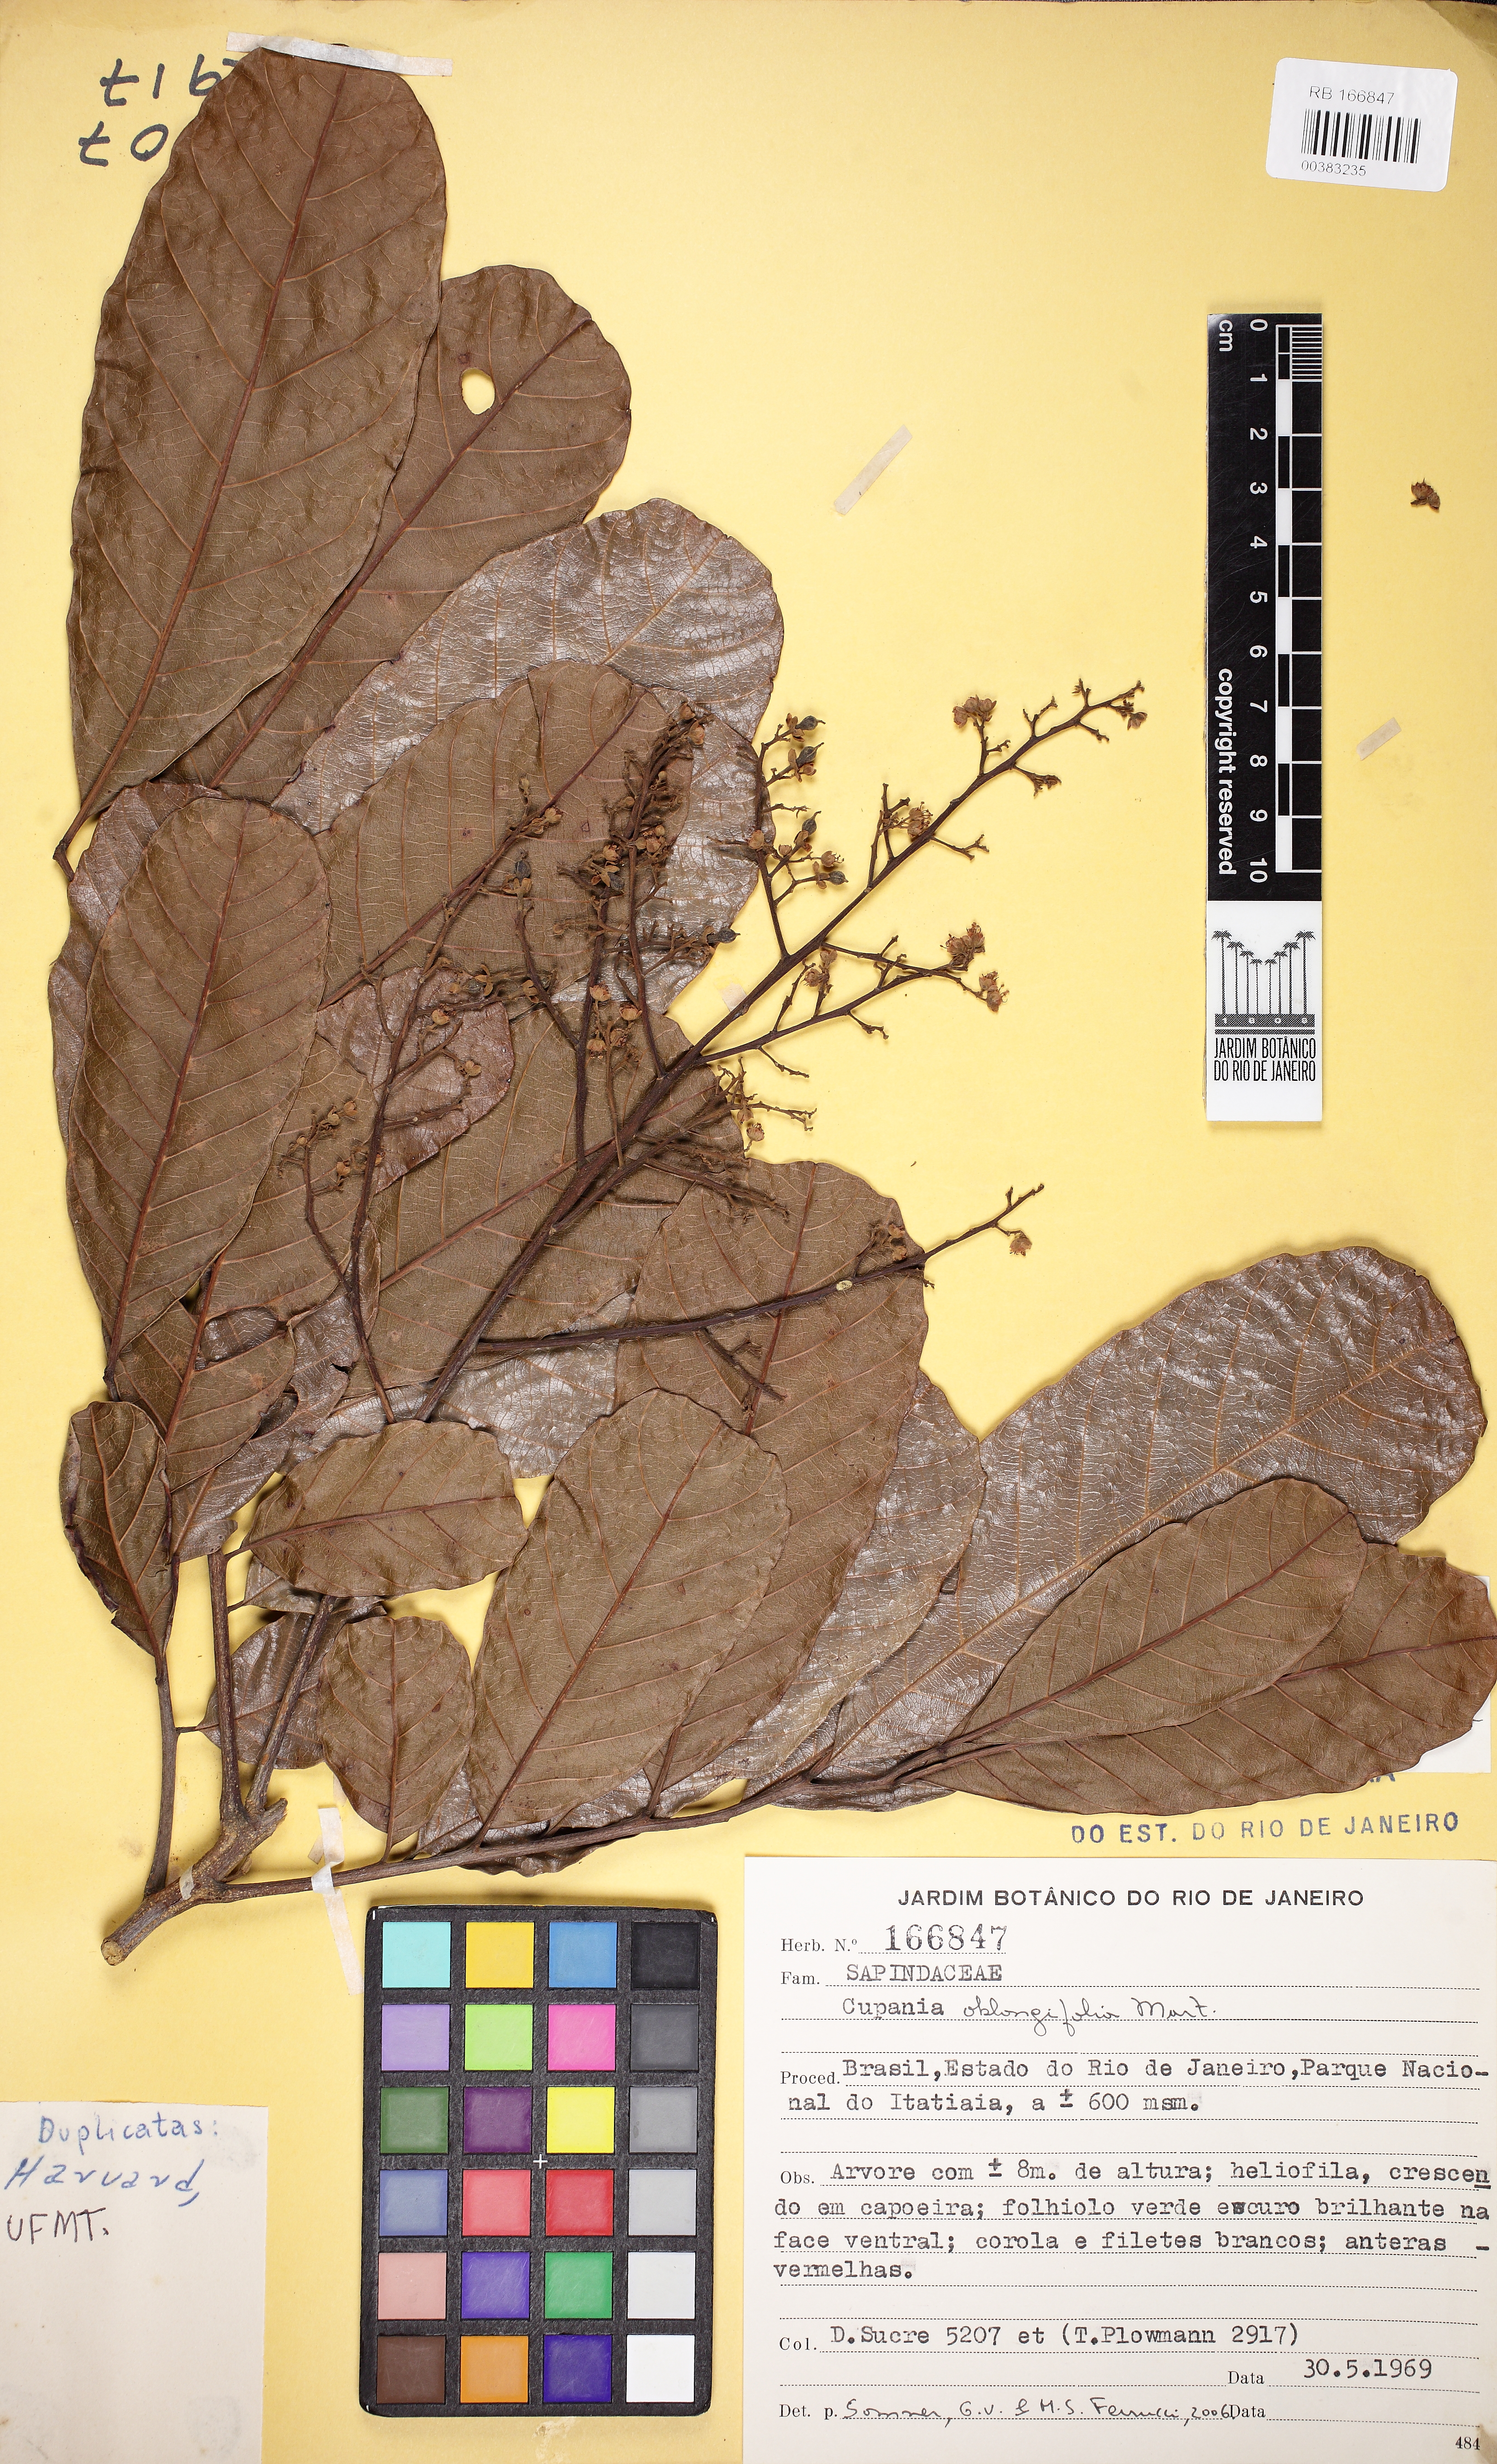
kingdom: Plantae
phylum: Tracheophyta
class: Magnoliopsida
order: Sapindales
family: Sapindaceae
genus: Cupania
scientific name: Cupania oblongifolia
